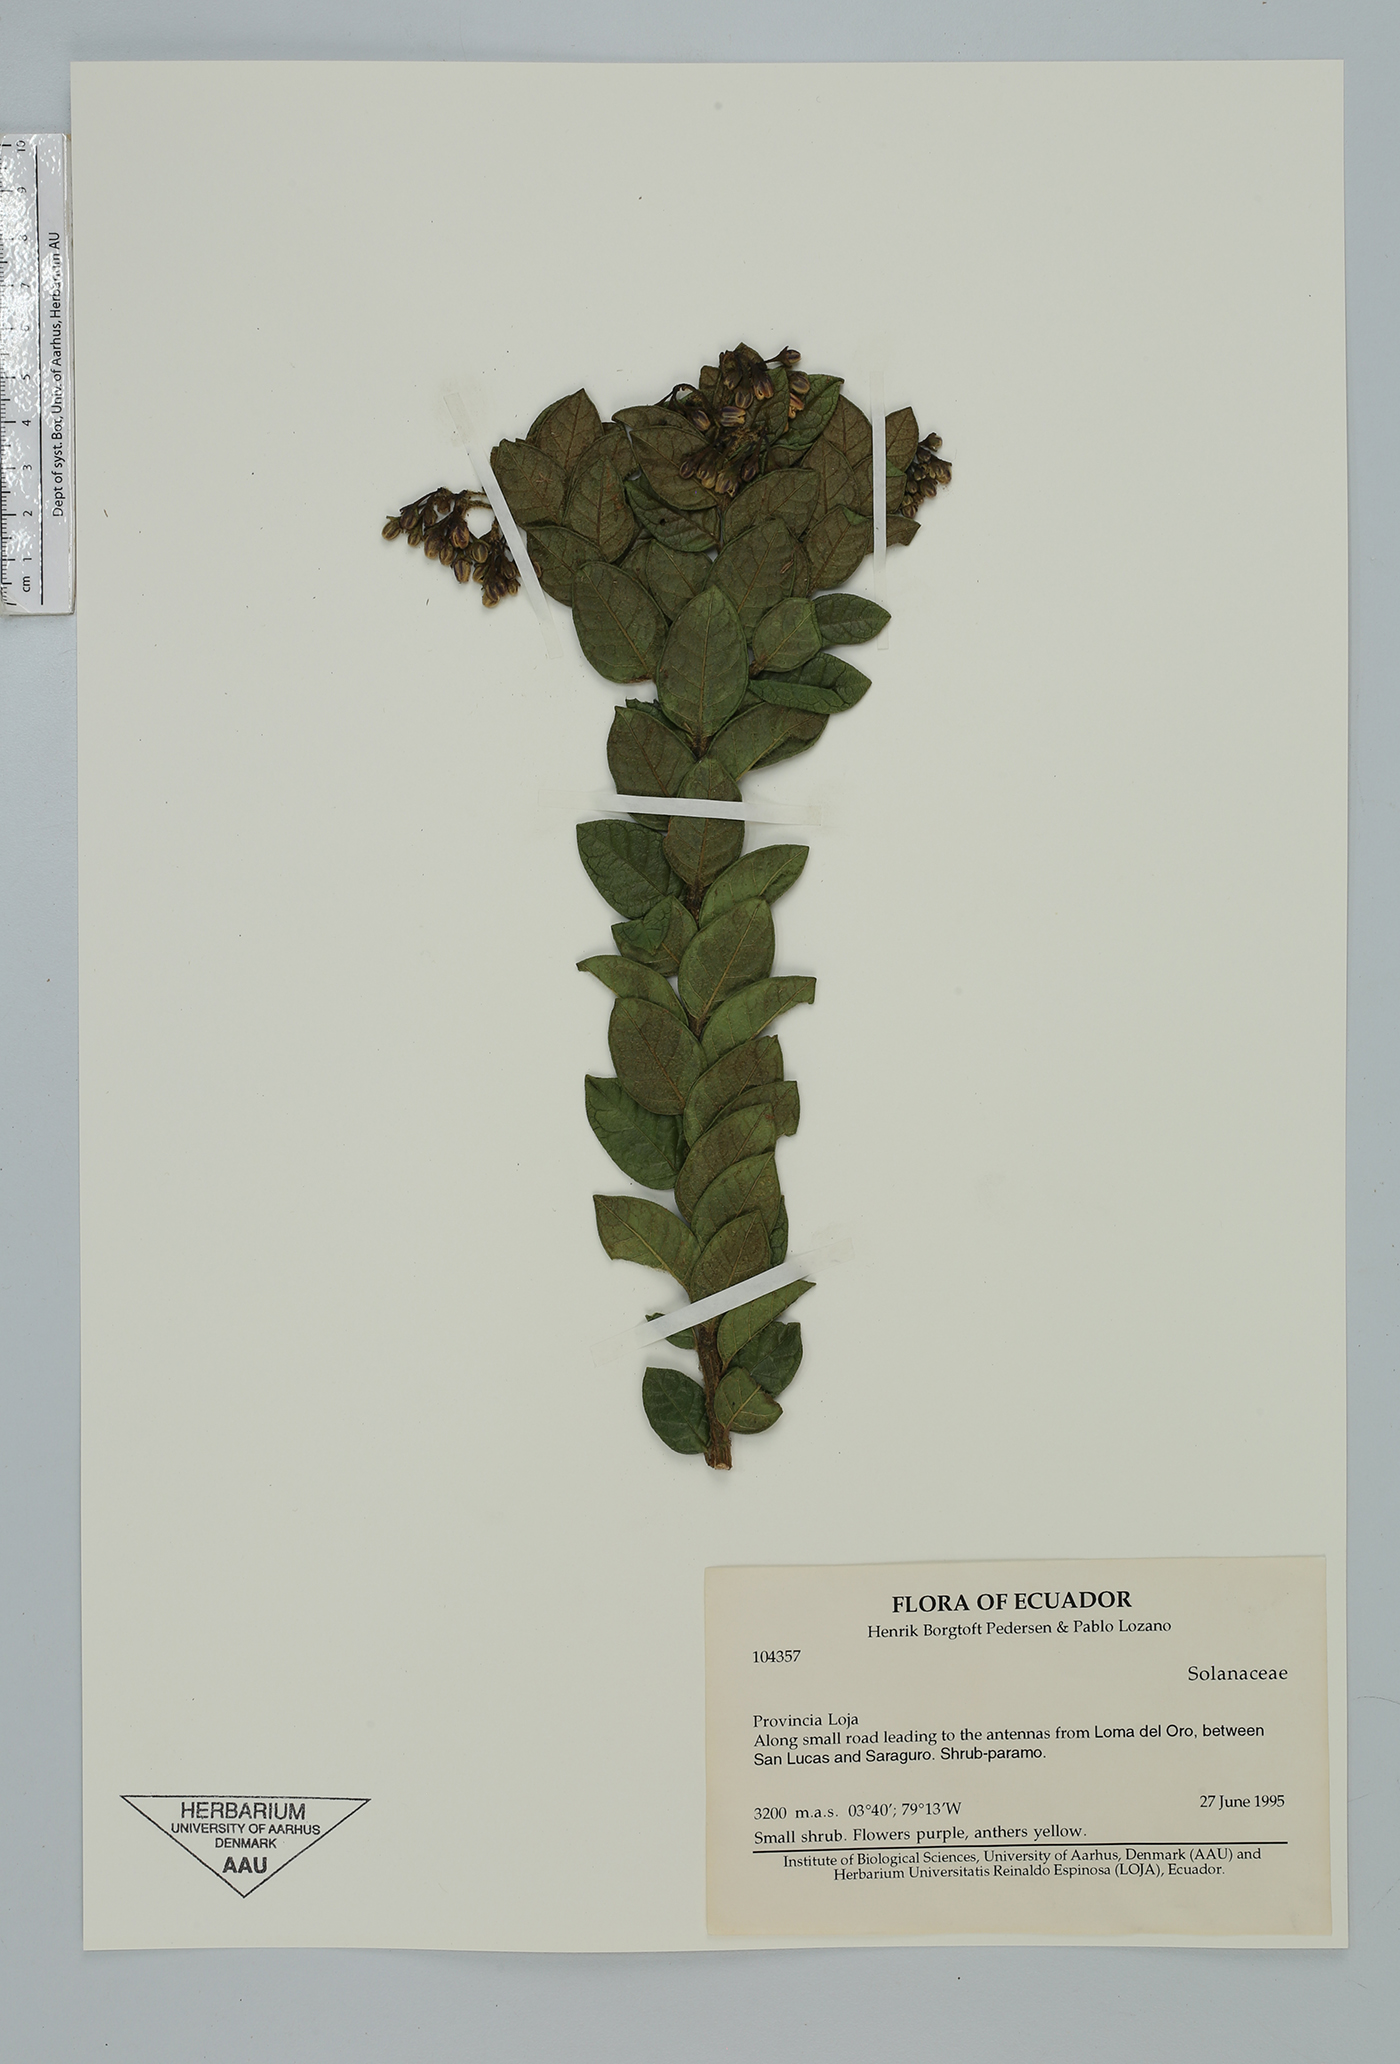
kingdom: Plantae
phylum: Tracheophyta
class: Magnoliopsida
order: Solanales
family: Solanaceae
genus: Solanum
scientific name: Solanum
